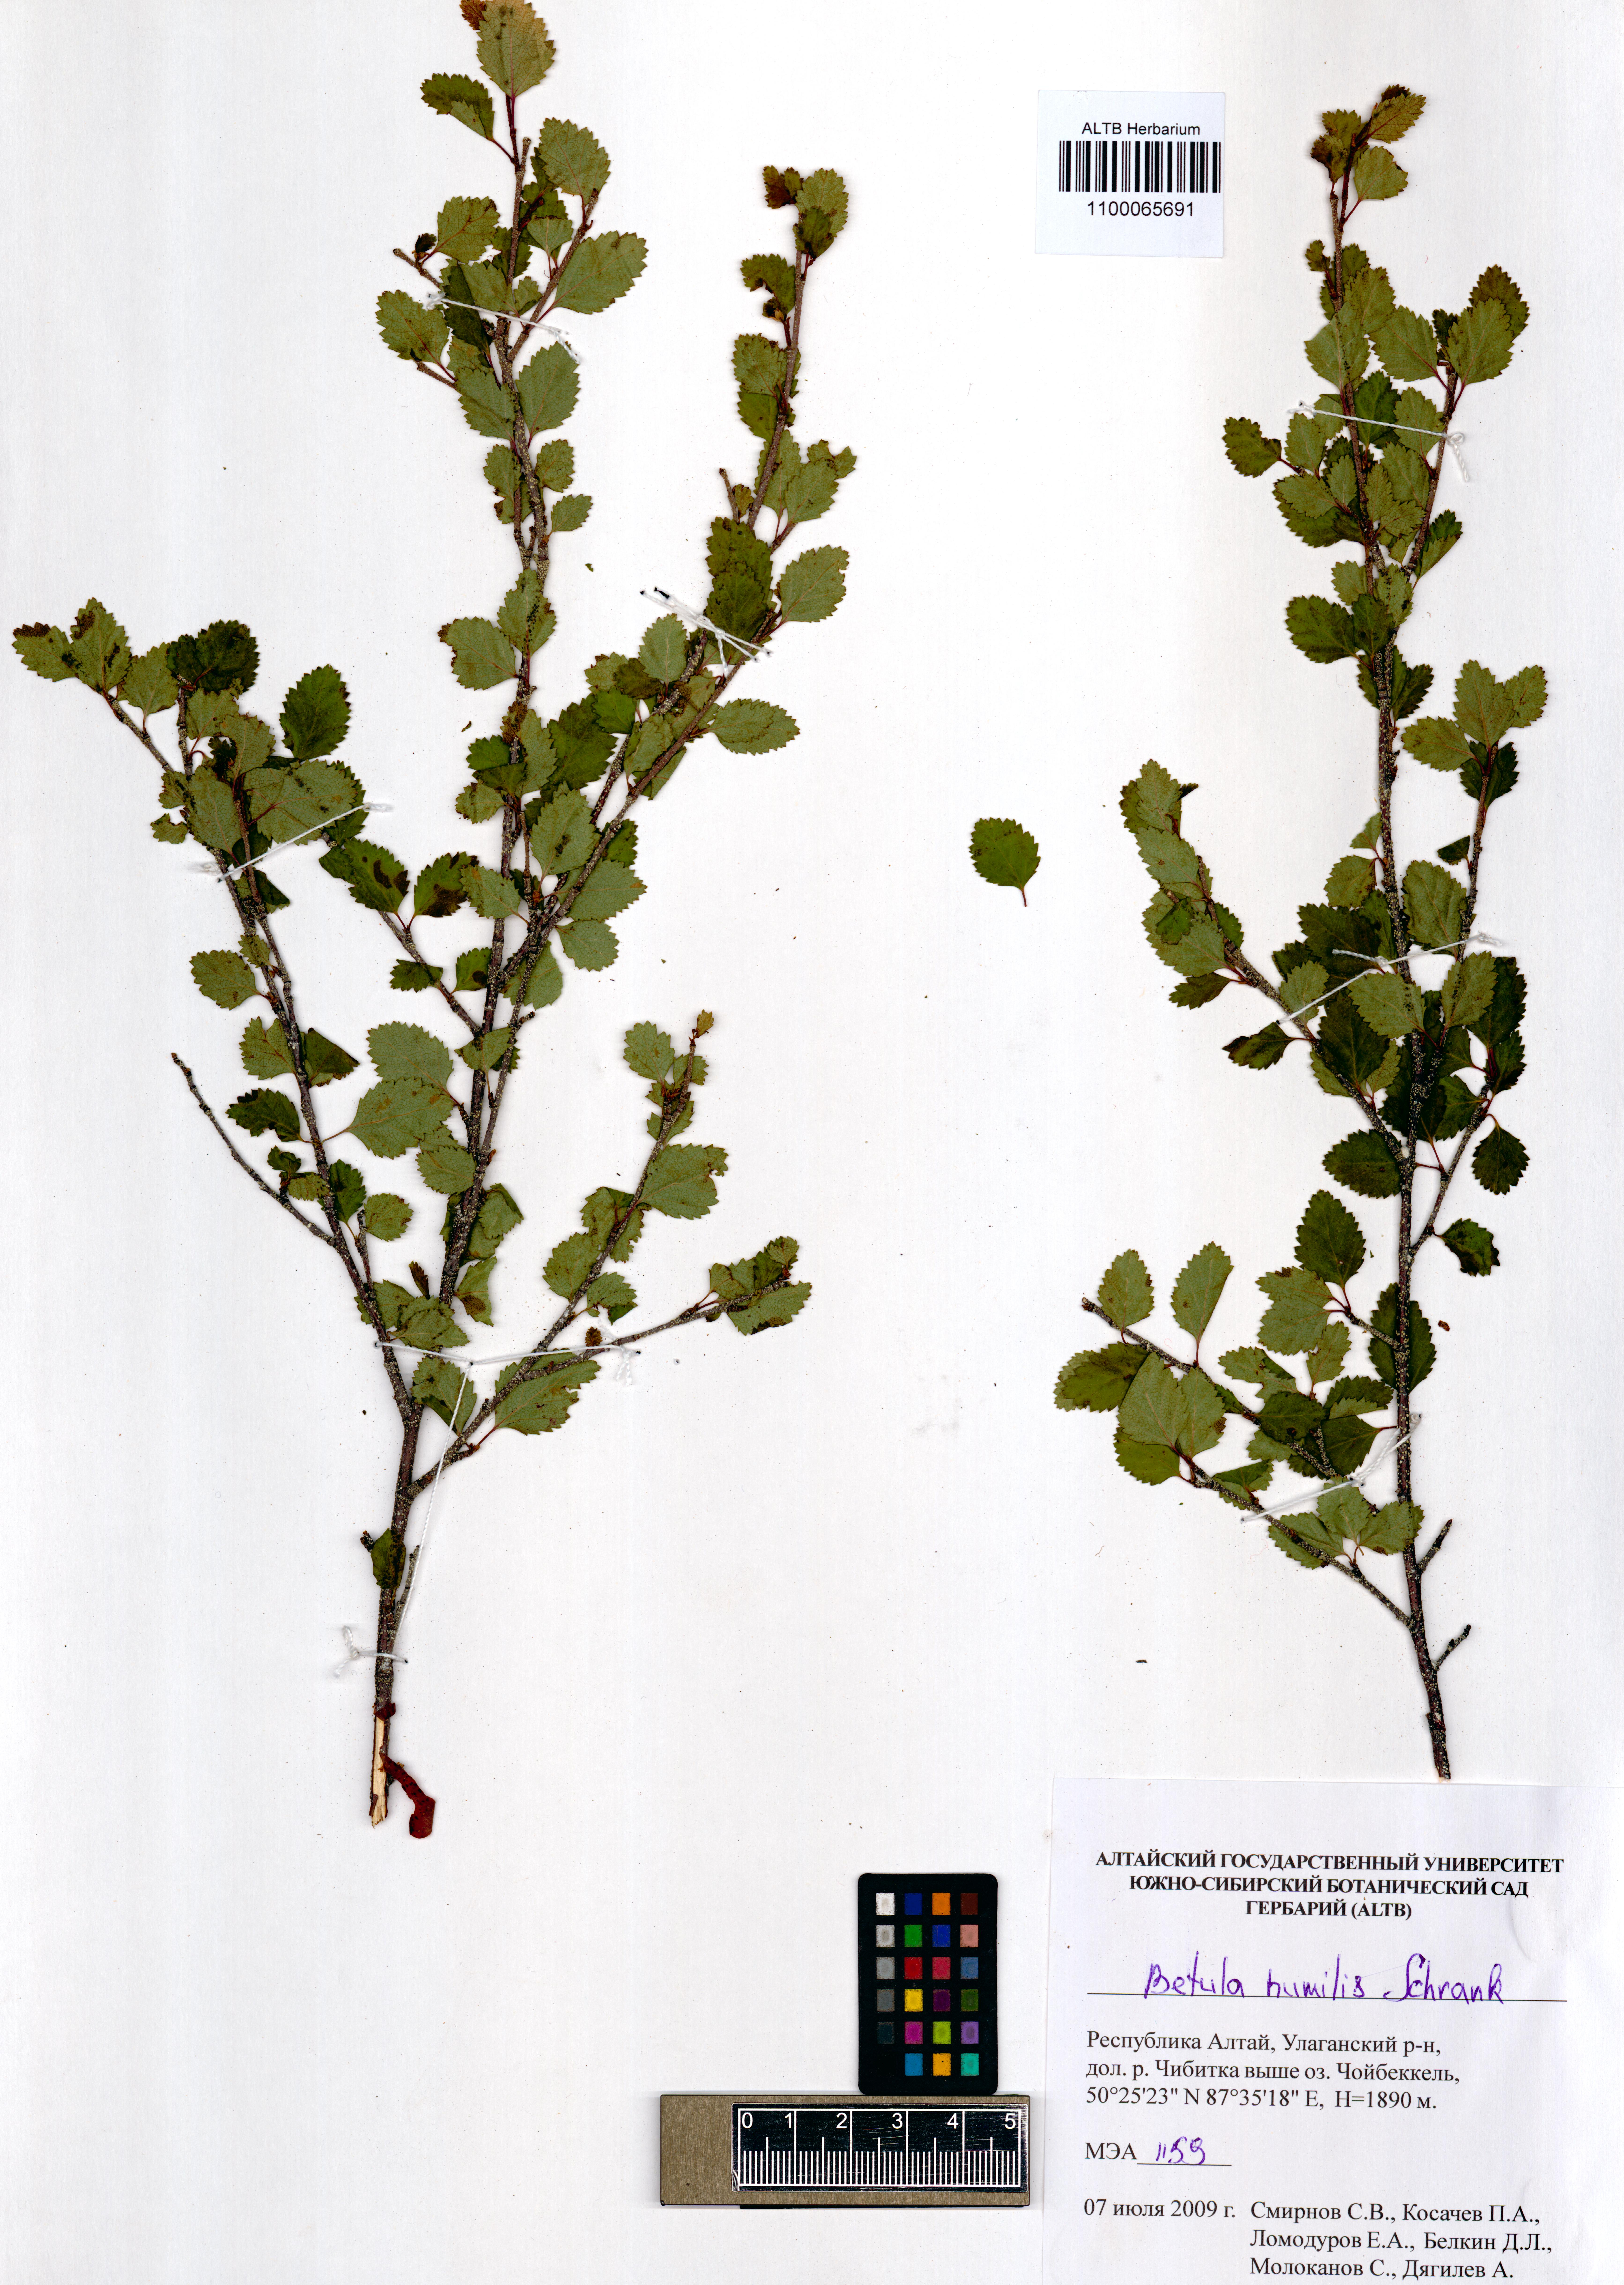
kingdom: Plantae
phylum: Tracheophyta
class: Magnoliopsida
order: Fagales
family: Betulaceae
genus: Betula
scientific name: Betula humilis
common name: Shrubby birch
